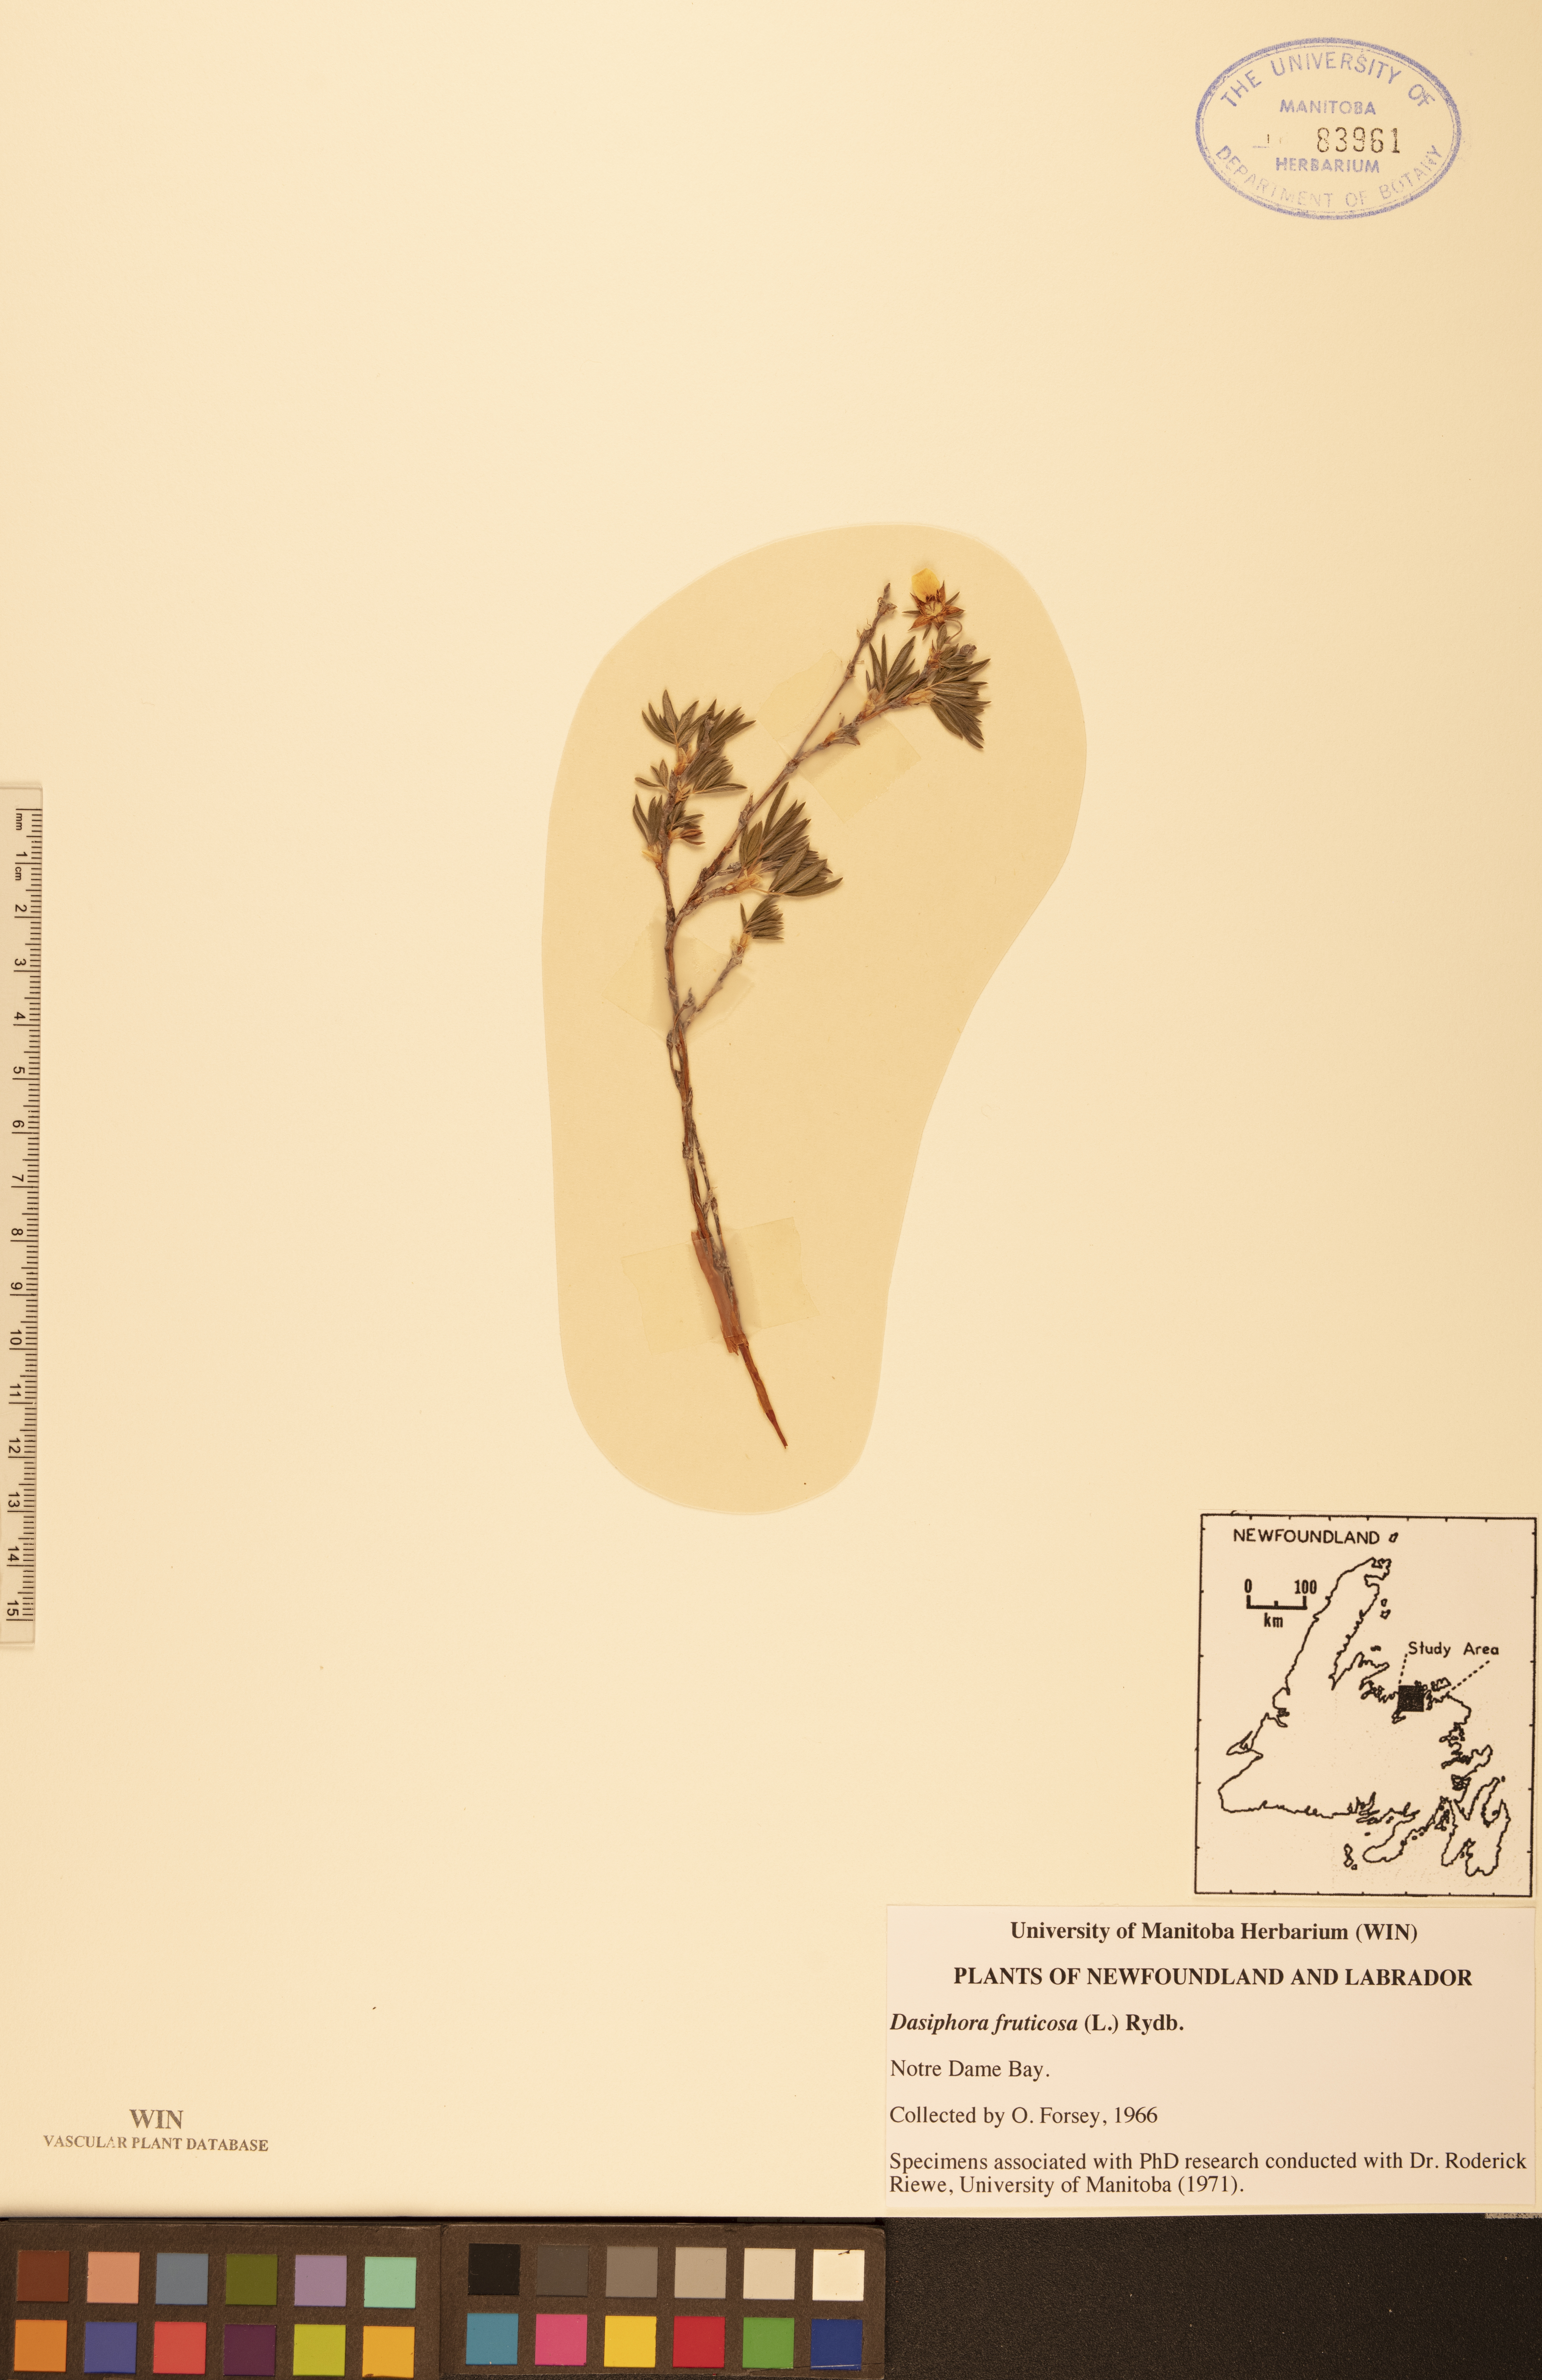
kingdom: Plantae
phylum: Tracheophyta
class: Magnoliopsida
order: Rosales
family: Rosaceae
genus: Dasiphora
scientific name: Dasiphora fruticosa
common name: Shrubby cinquefoil
